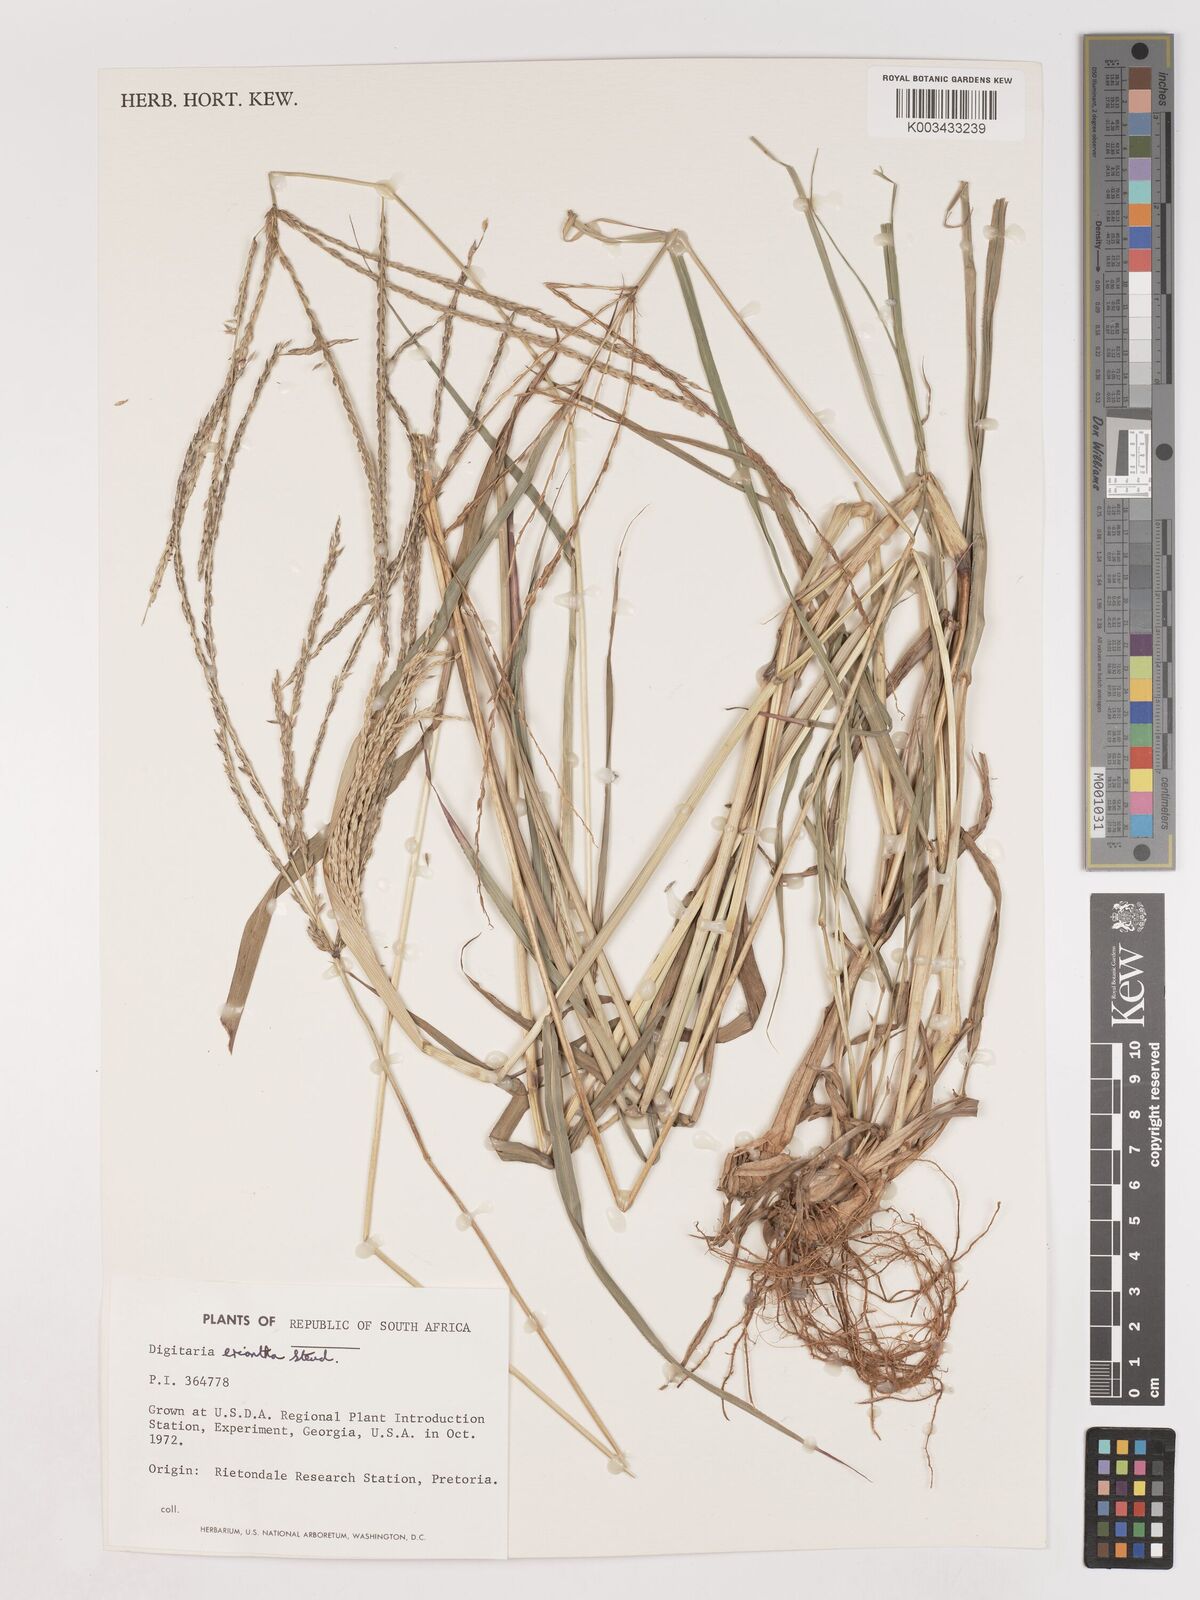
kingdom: Plantae
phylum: Tracheophyta
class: Liliopsida
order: Poales
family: Poaceae
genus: Digitaria
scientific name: Digitaria eriantha
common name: Digitgrass
